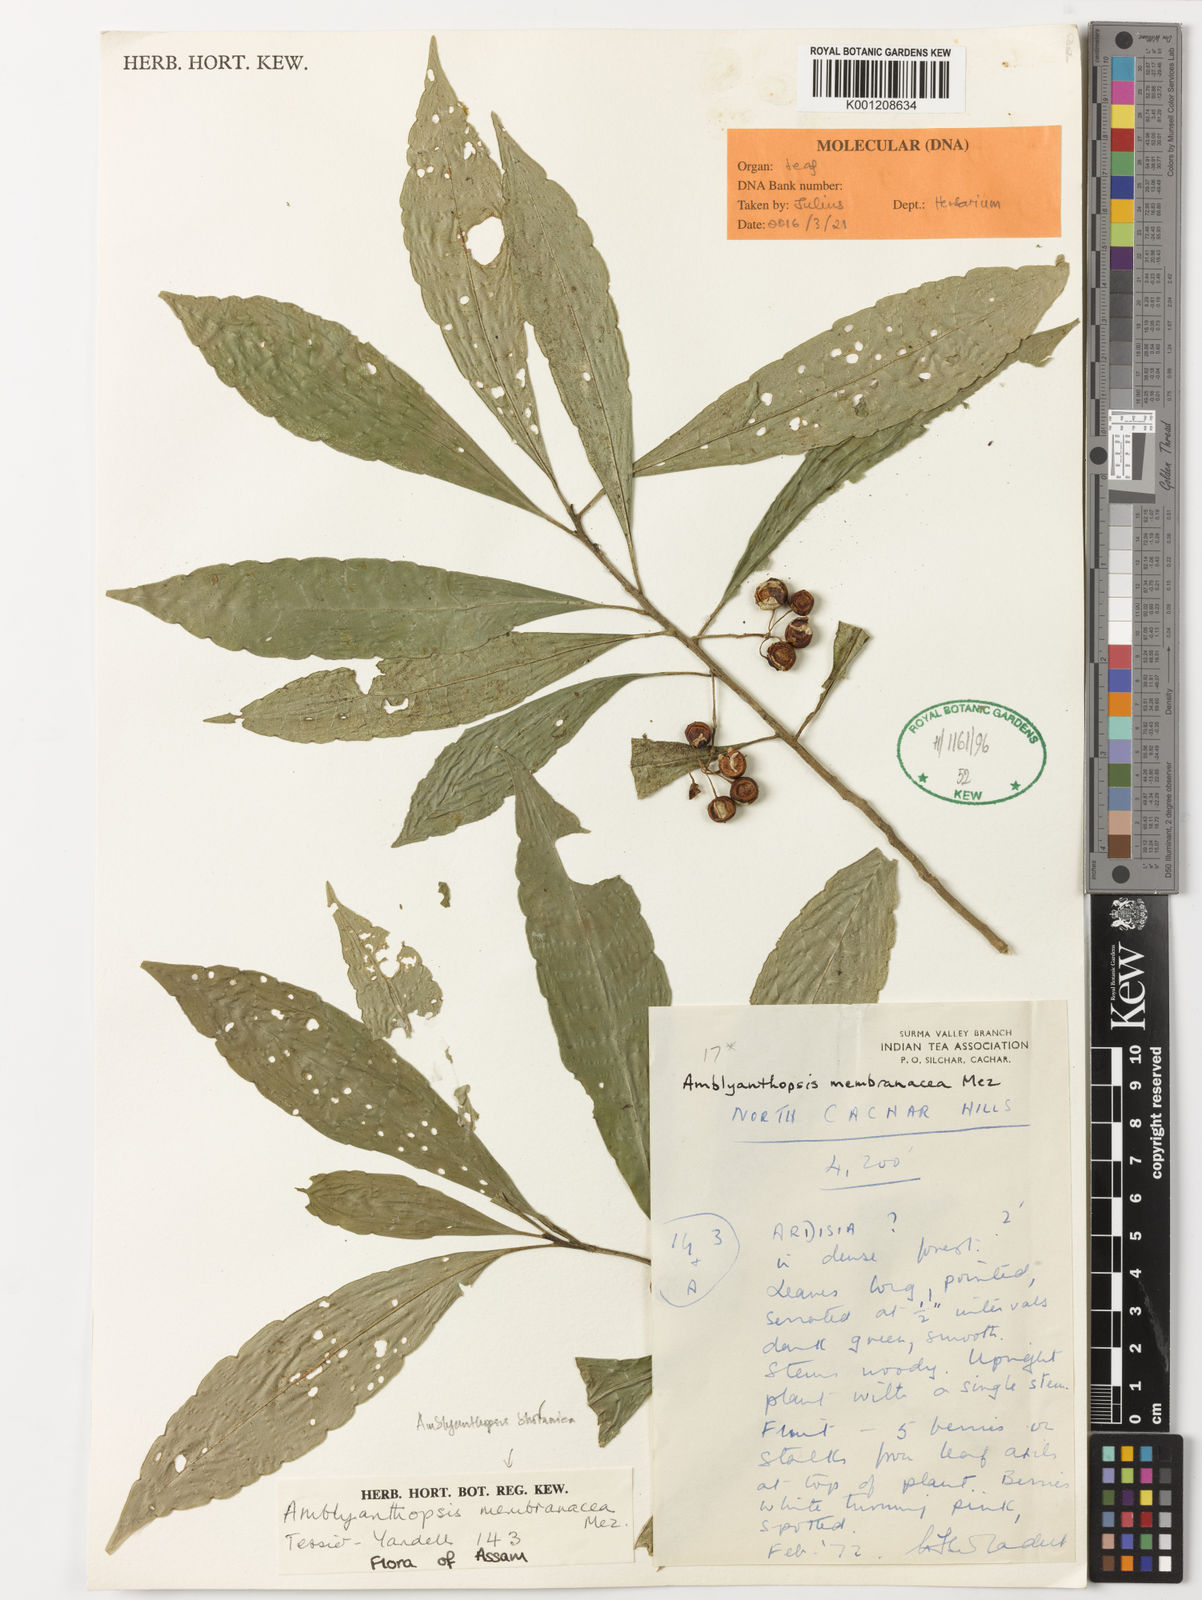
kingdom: Plantae
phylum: Tracheophyta
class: Magnoliopsida
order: Ericales
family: Primulaceae
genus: Amblyanthopsis
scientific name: Amblyanthopsis bhotanica
